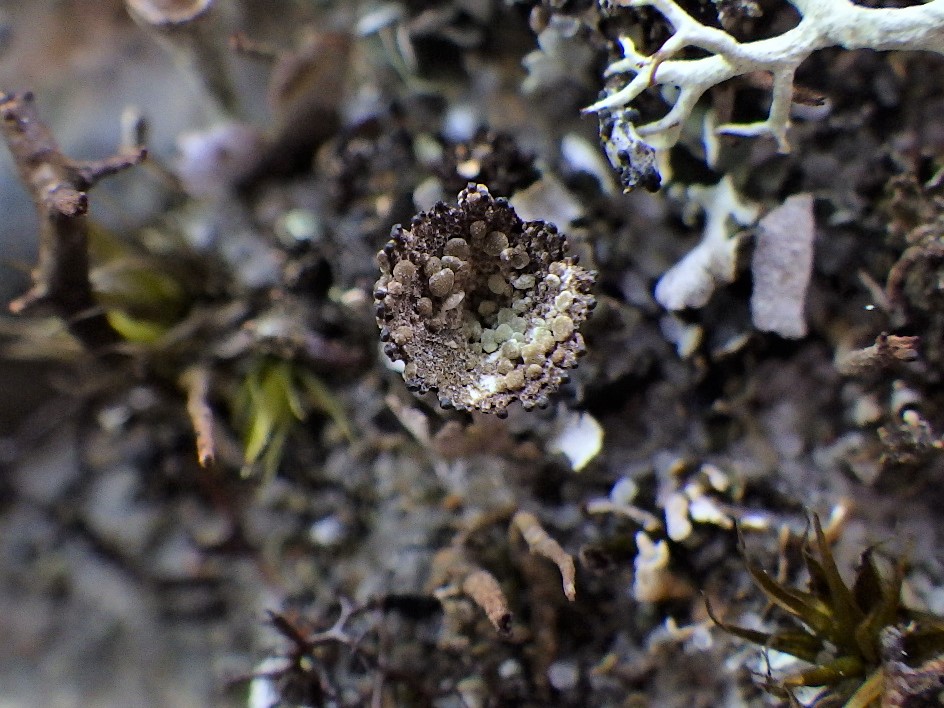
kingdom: Fungi
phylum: Ascomycota
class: Lecanoromycetes
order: Lecanorales
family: Cladoniaceae
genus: Cladonia
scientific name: Cladonia pyxidata
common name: tragt-bægerlav
